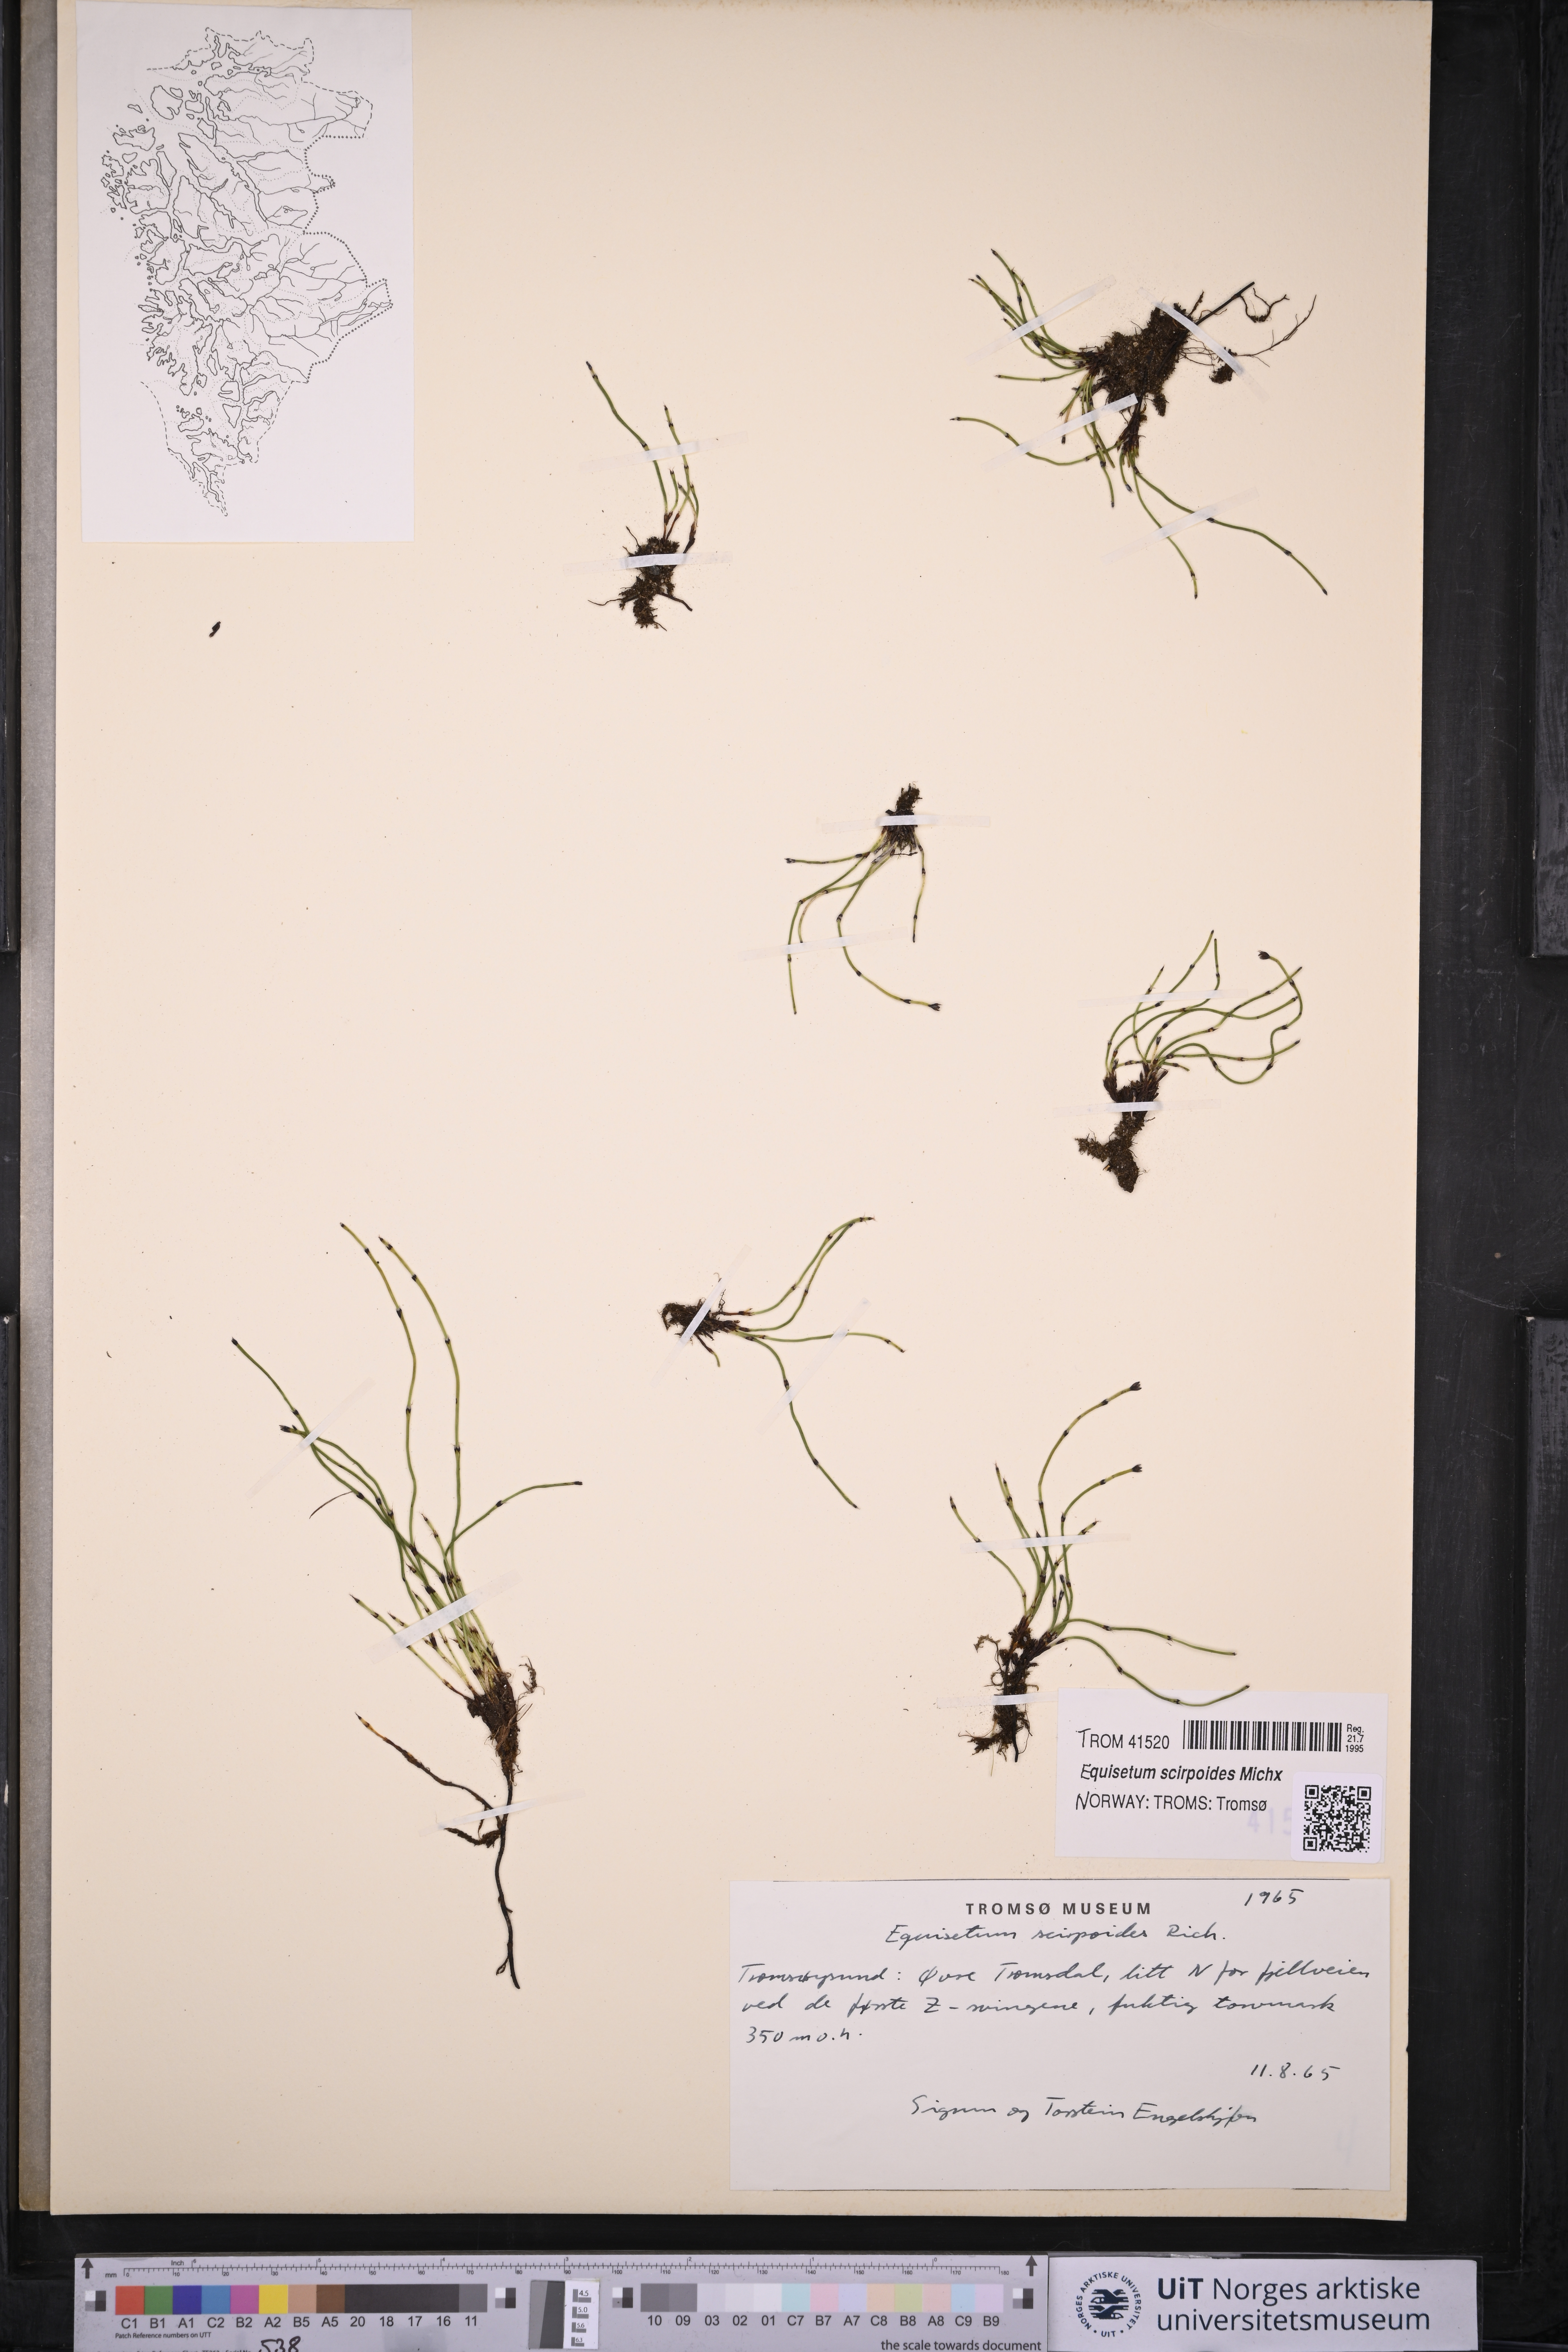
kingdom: Plantae
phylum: Tracheophyta
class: Polypodiopsida
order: Equisetales
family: Equisetaceae
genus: Equisetum
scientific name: Equisetum scirpoides
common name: Delicate horsetail
